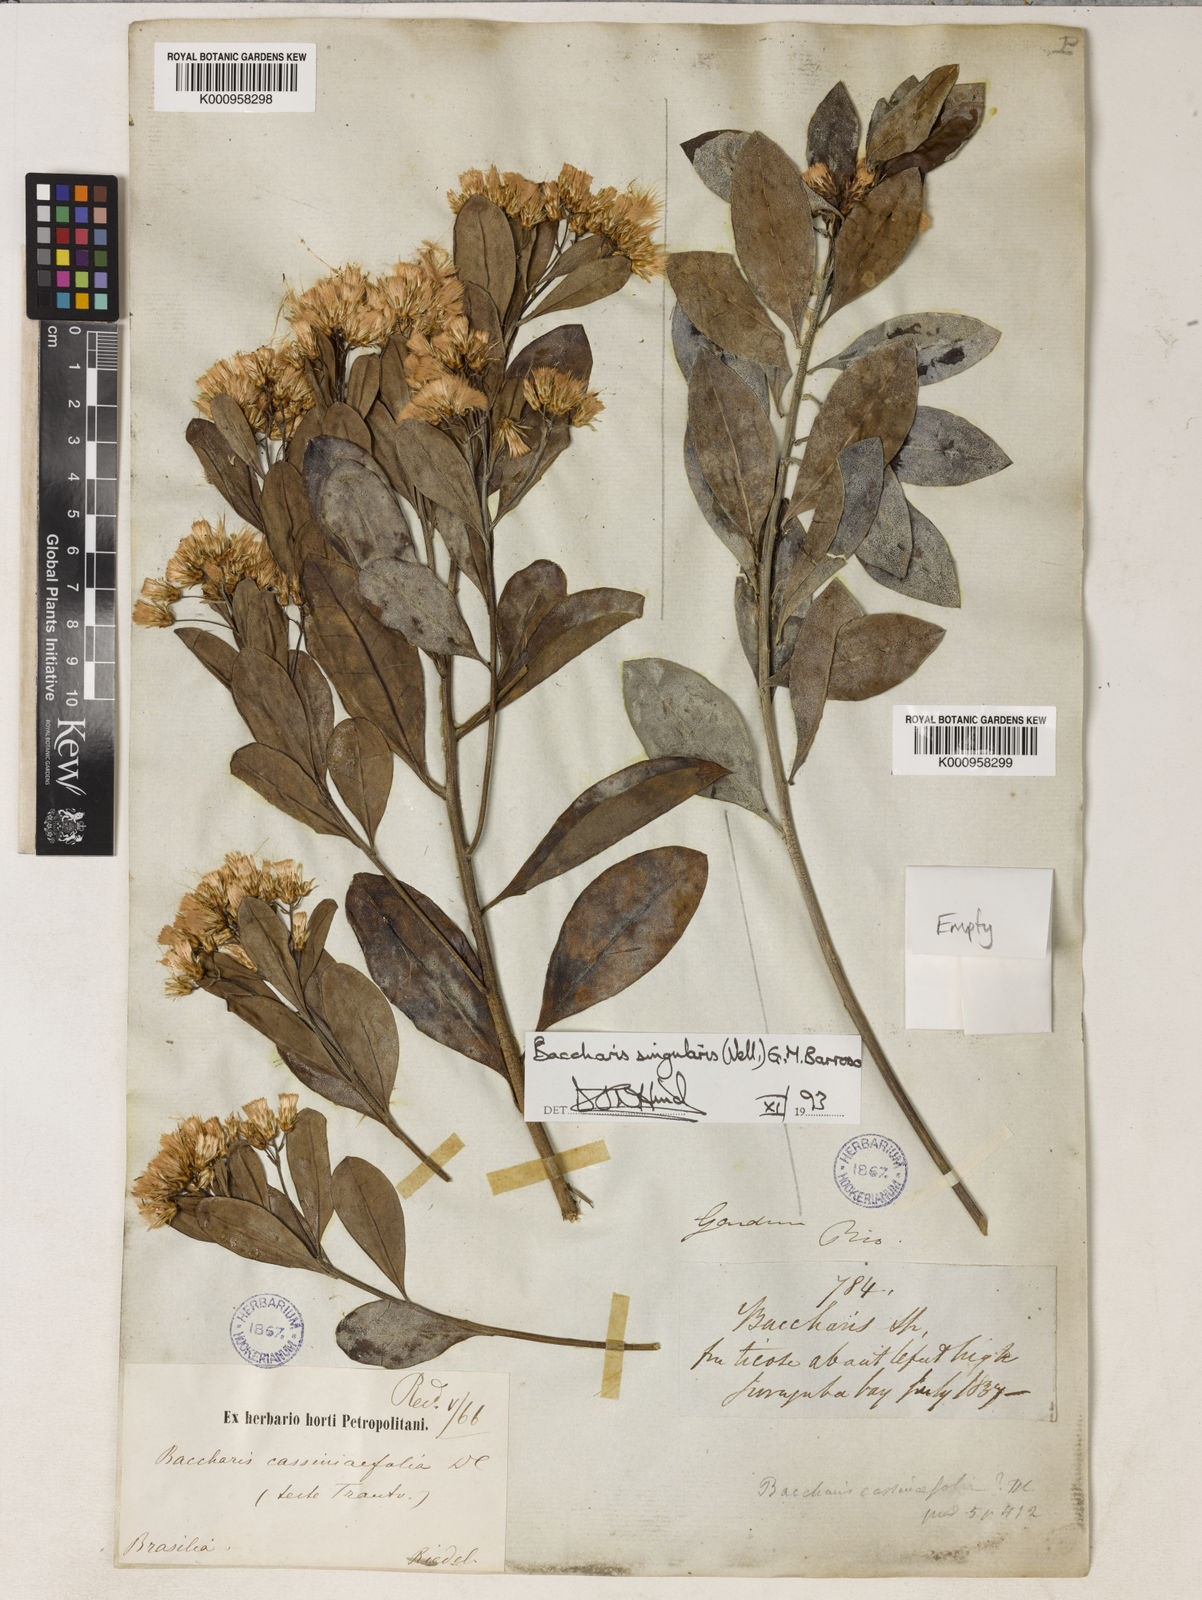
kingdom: Plantae
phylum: Tracheophyta
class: Magnoliopsida
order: Asterales
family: Asteraceae
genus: Baccharis
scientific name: Baccharis singularis
